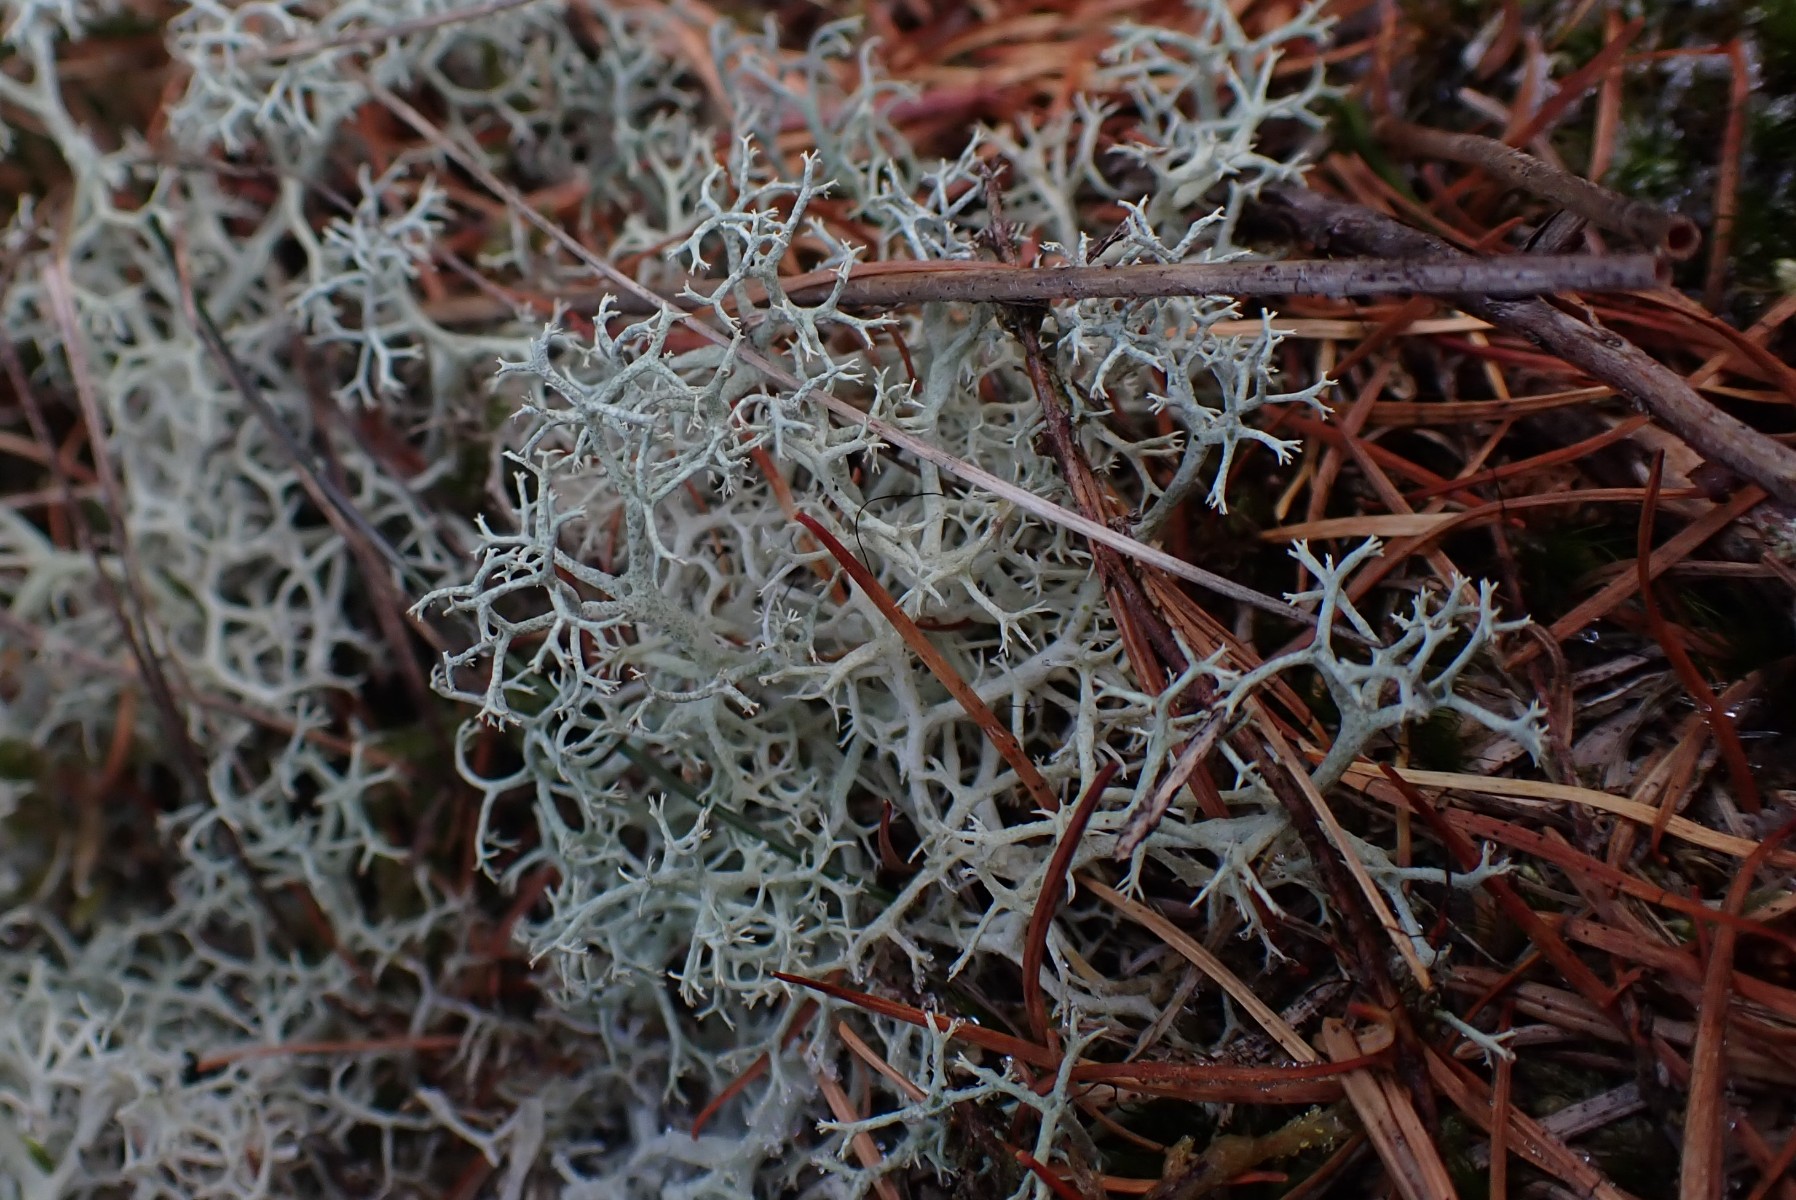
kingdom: Fungi
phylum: Ascomycota
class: Lecanoromycetes
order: Lecanorales
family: Cladoniaceae
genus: Cladonia
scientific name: Cladonia portentosa
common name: hede-rensdyrlav
